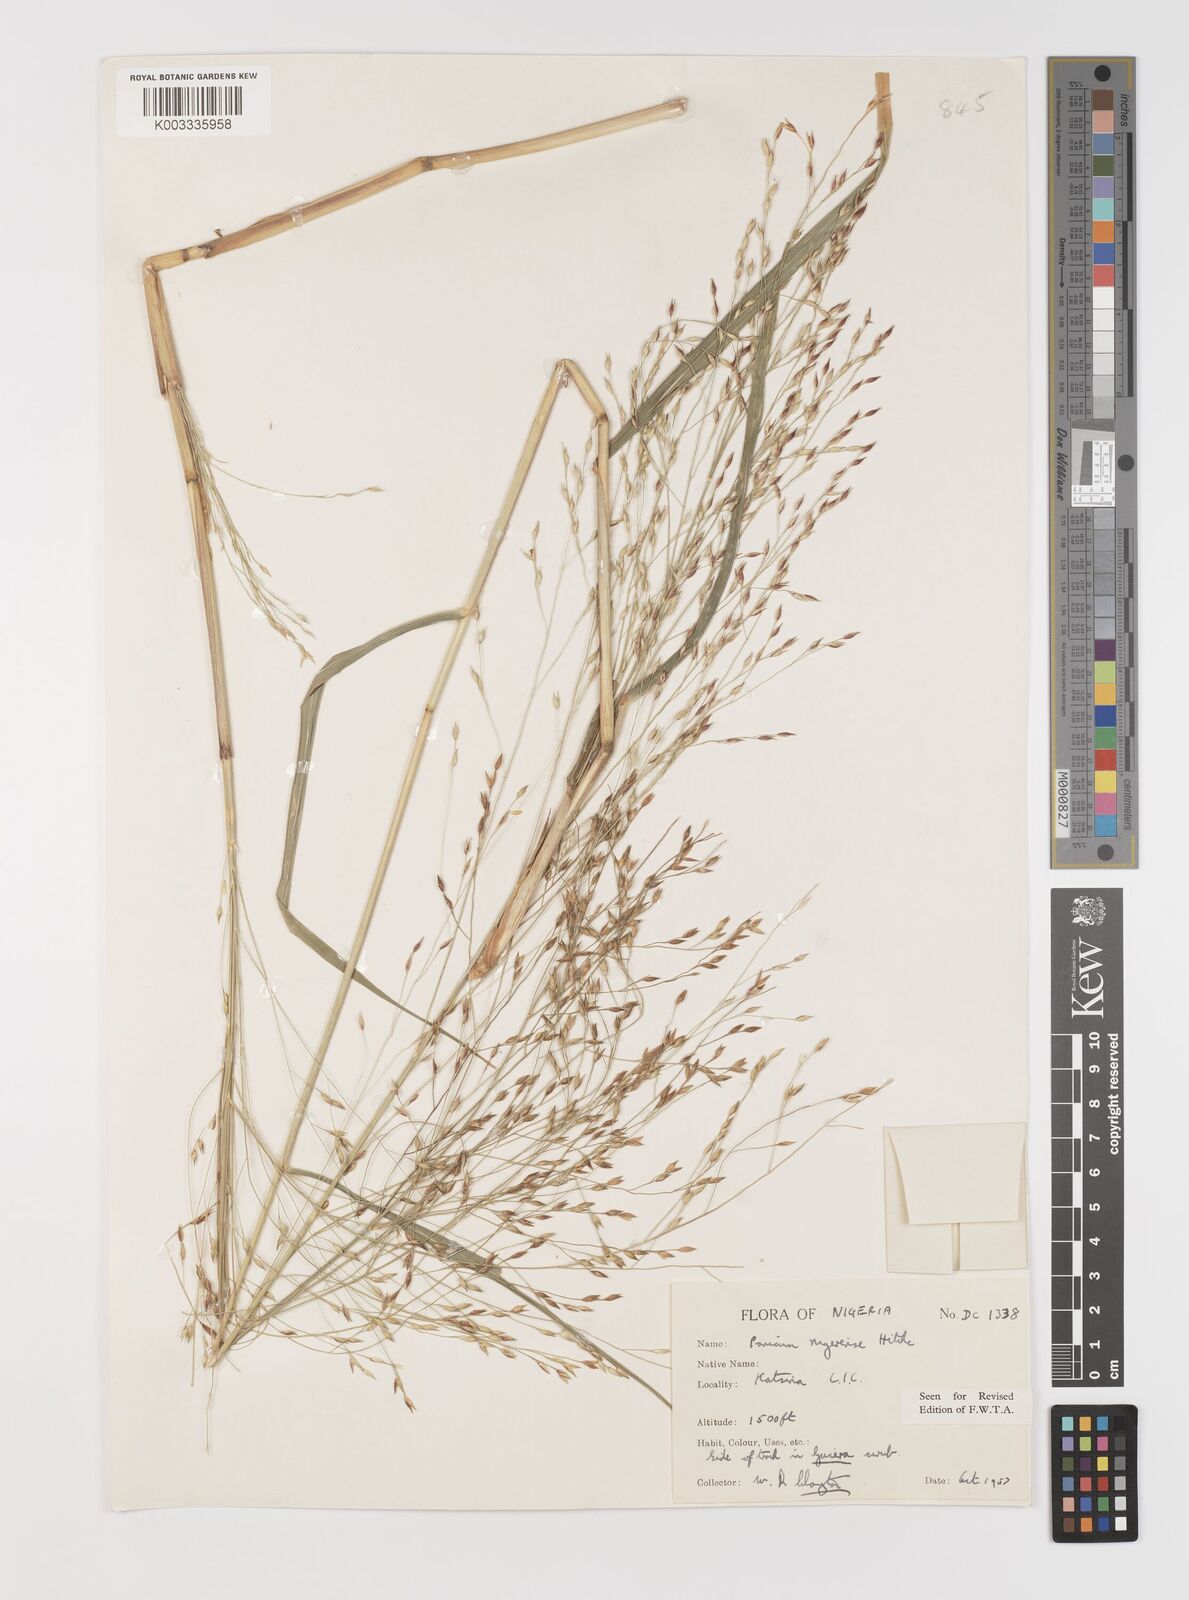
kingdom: Plantae
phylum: Tracheophyta
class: Liliopsida
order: Poales
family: Poaceae
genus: Panicum
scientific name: Panicum nigerense
